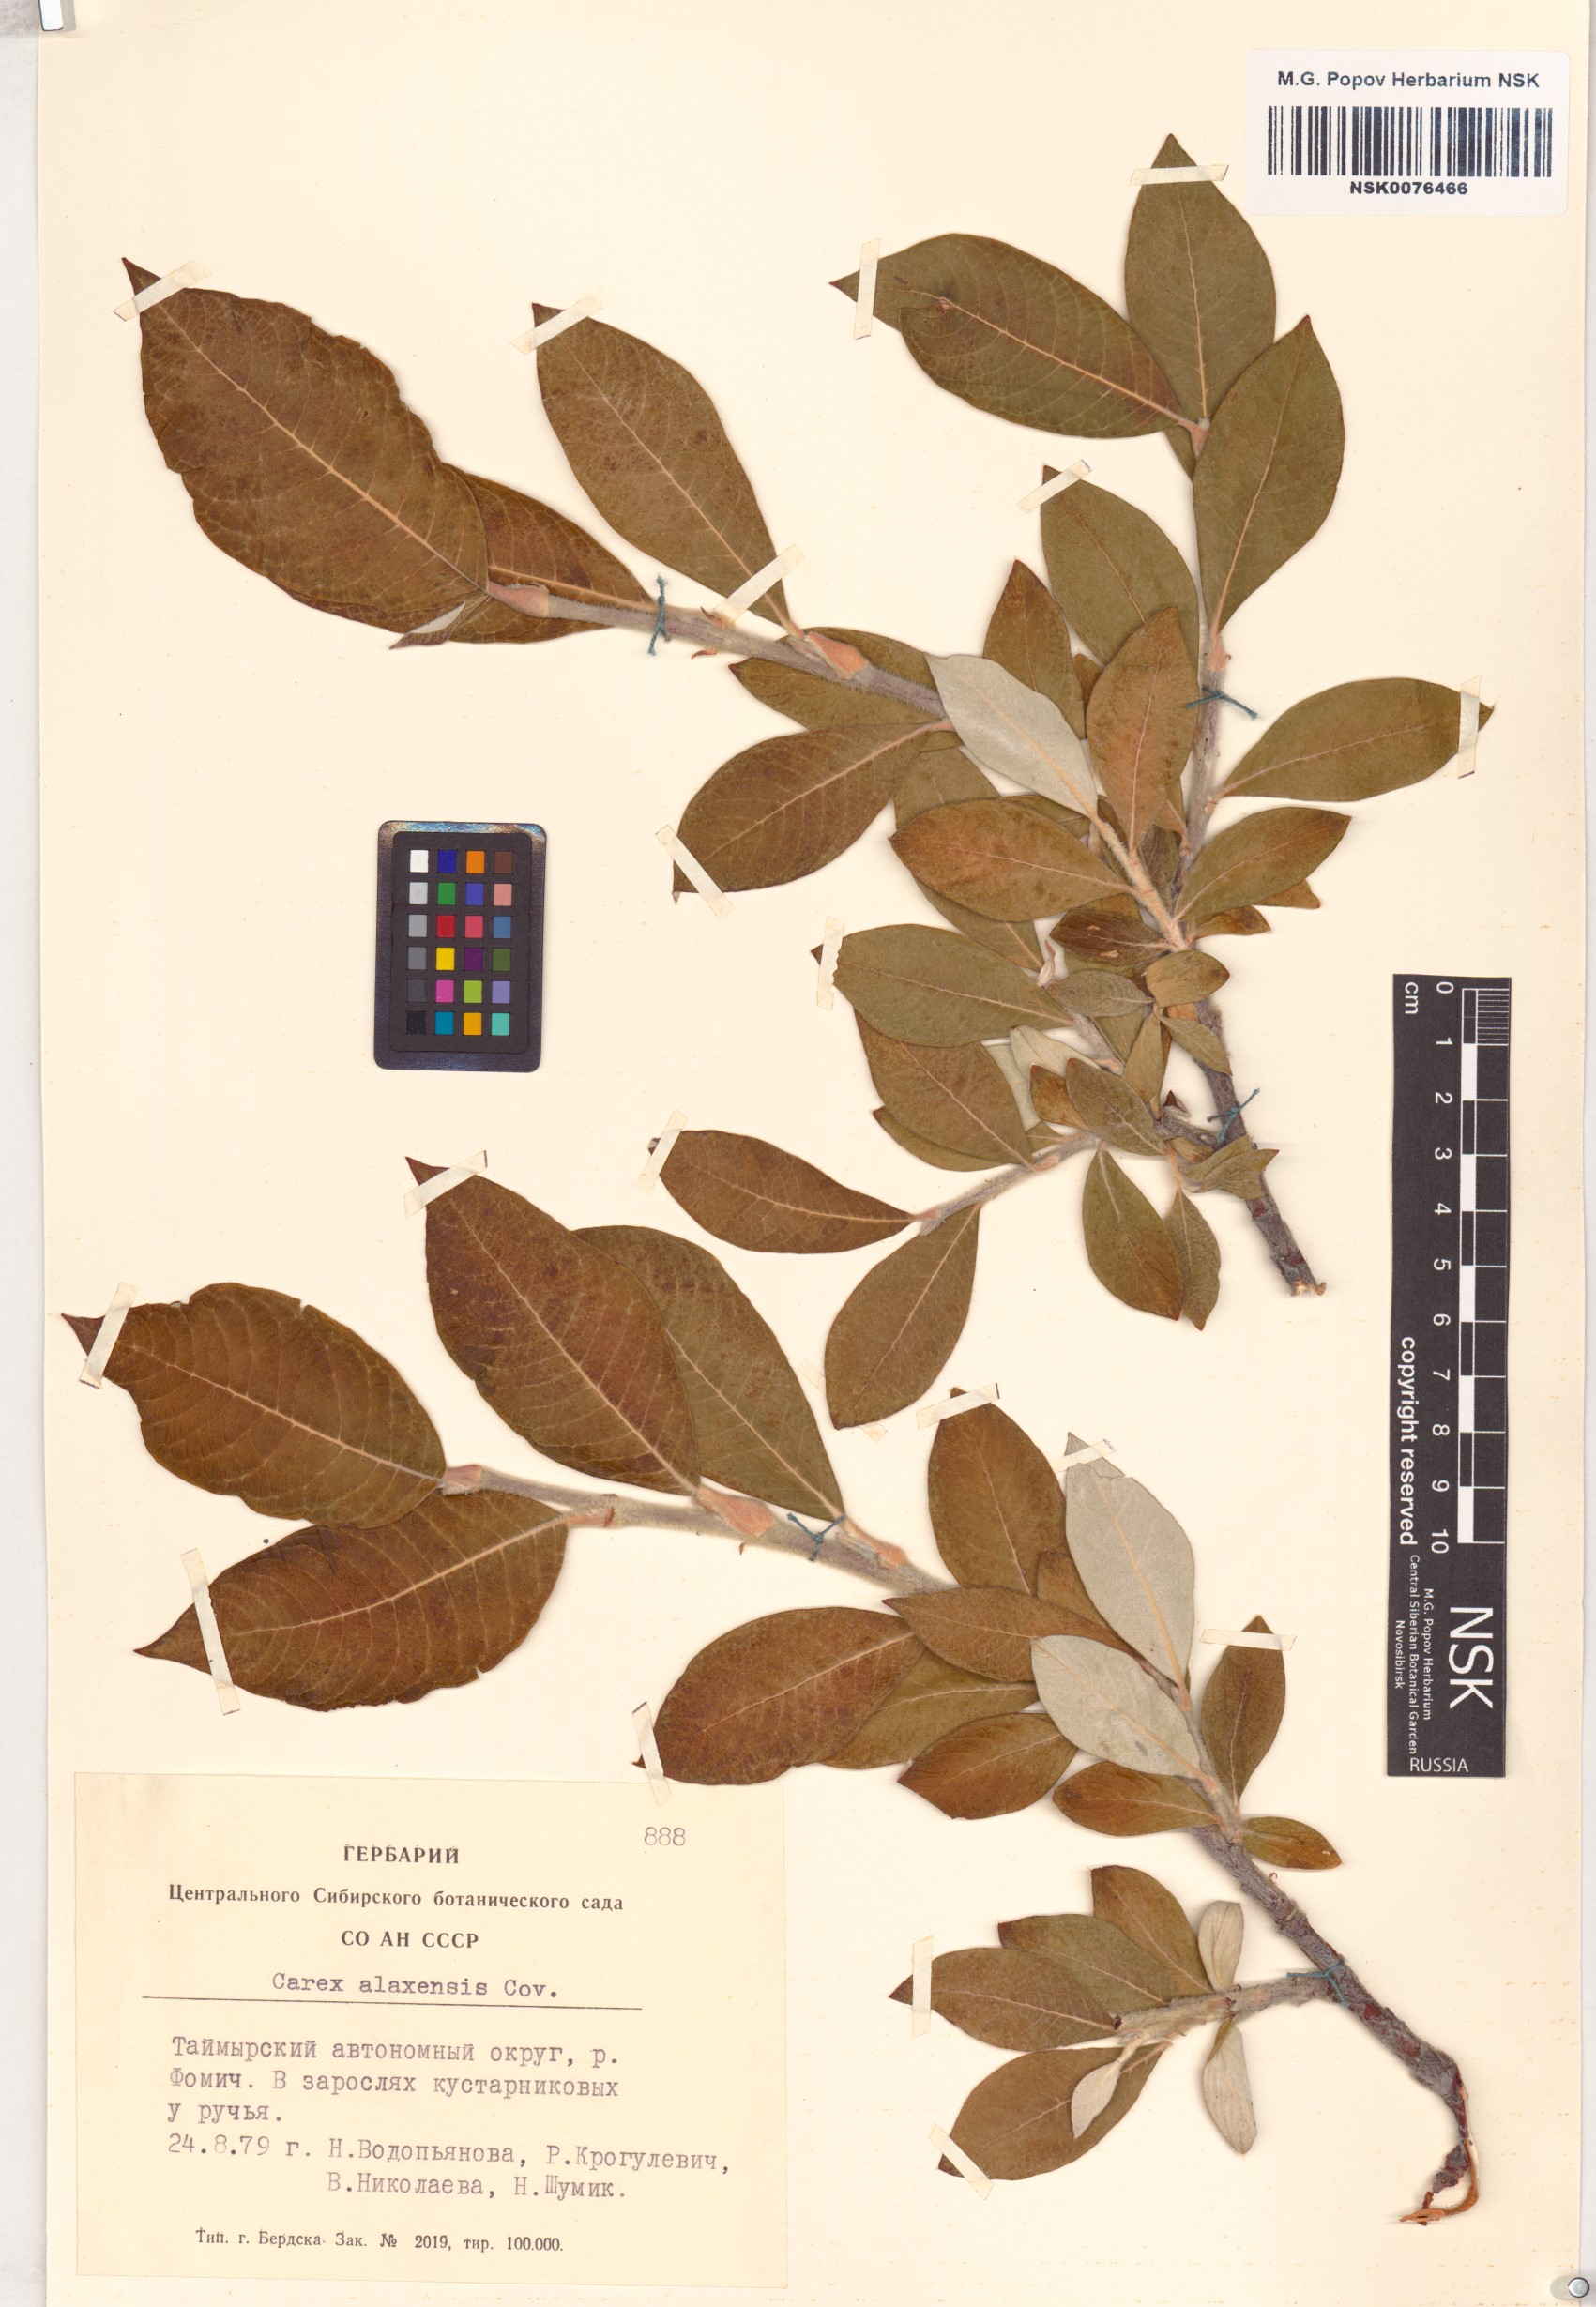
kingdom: Plantae
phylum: Tracheophyta
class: Magnoliopsida
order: Malpighiales
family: Salicaceae
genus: Salix
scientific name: Salix alaxensis
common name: Feltleaf willow
